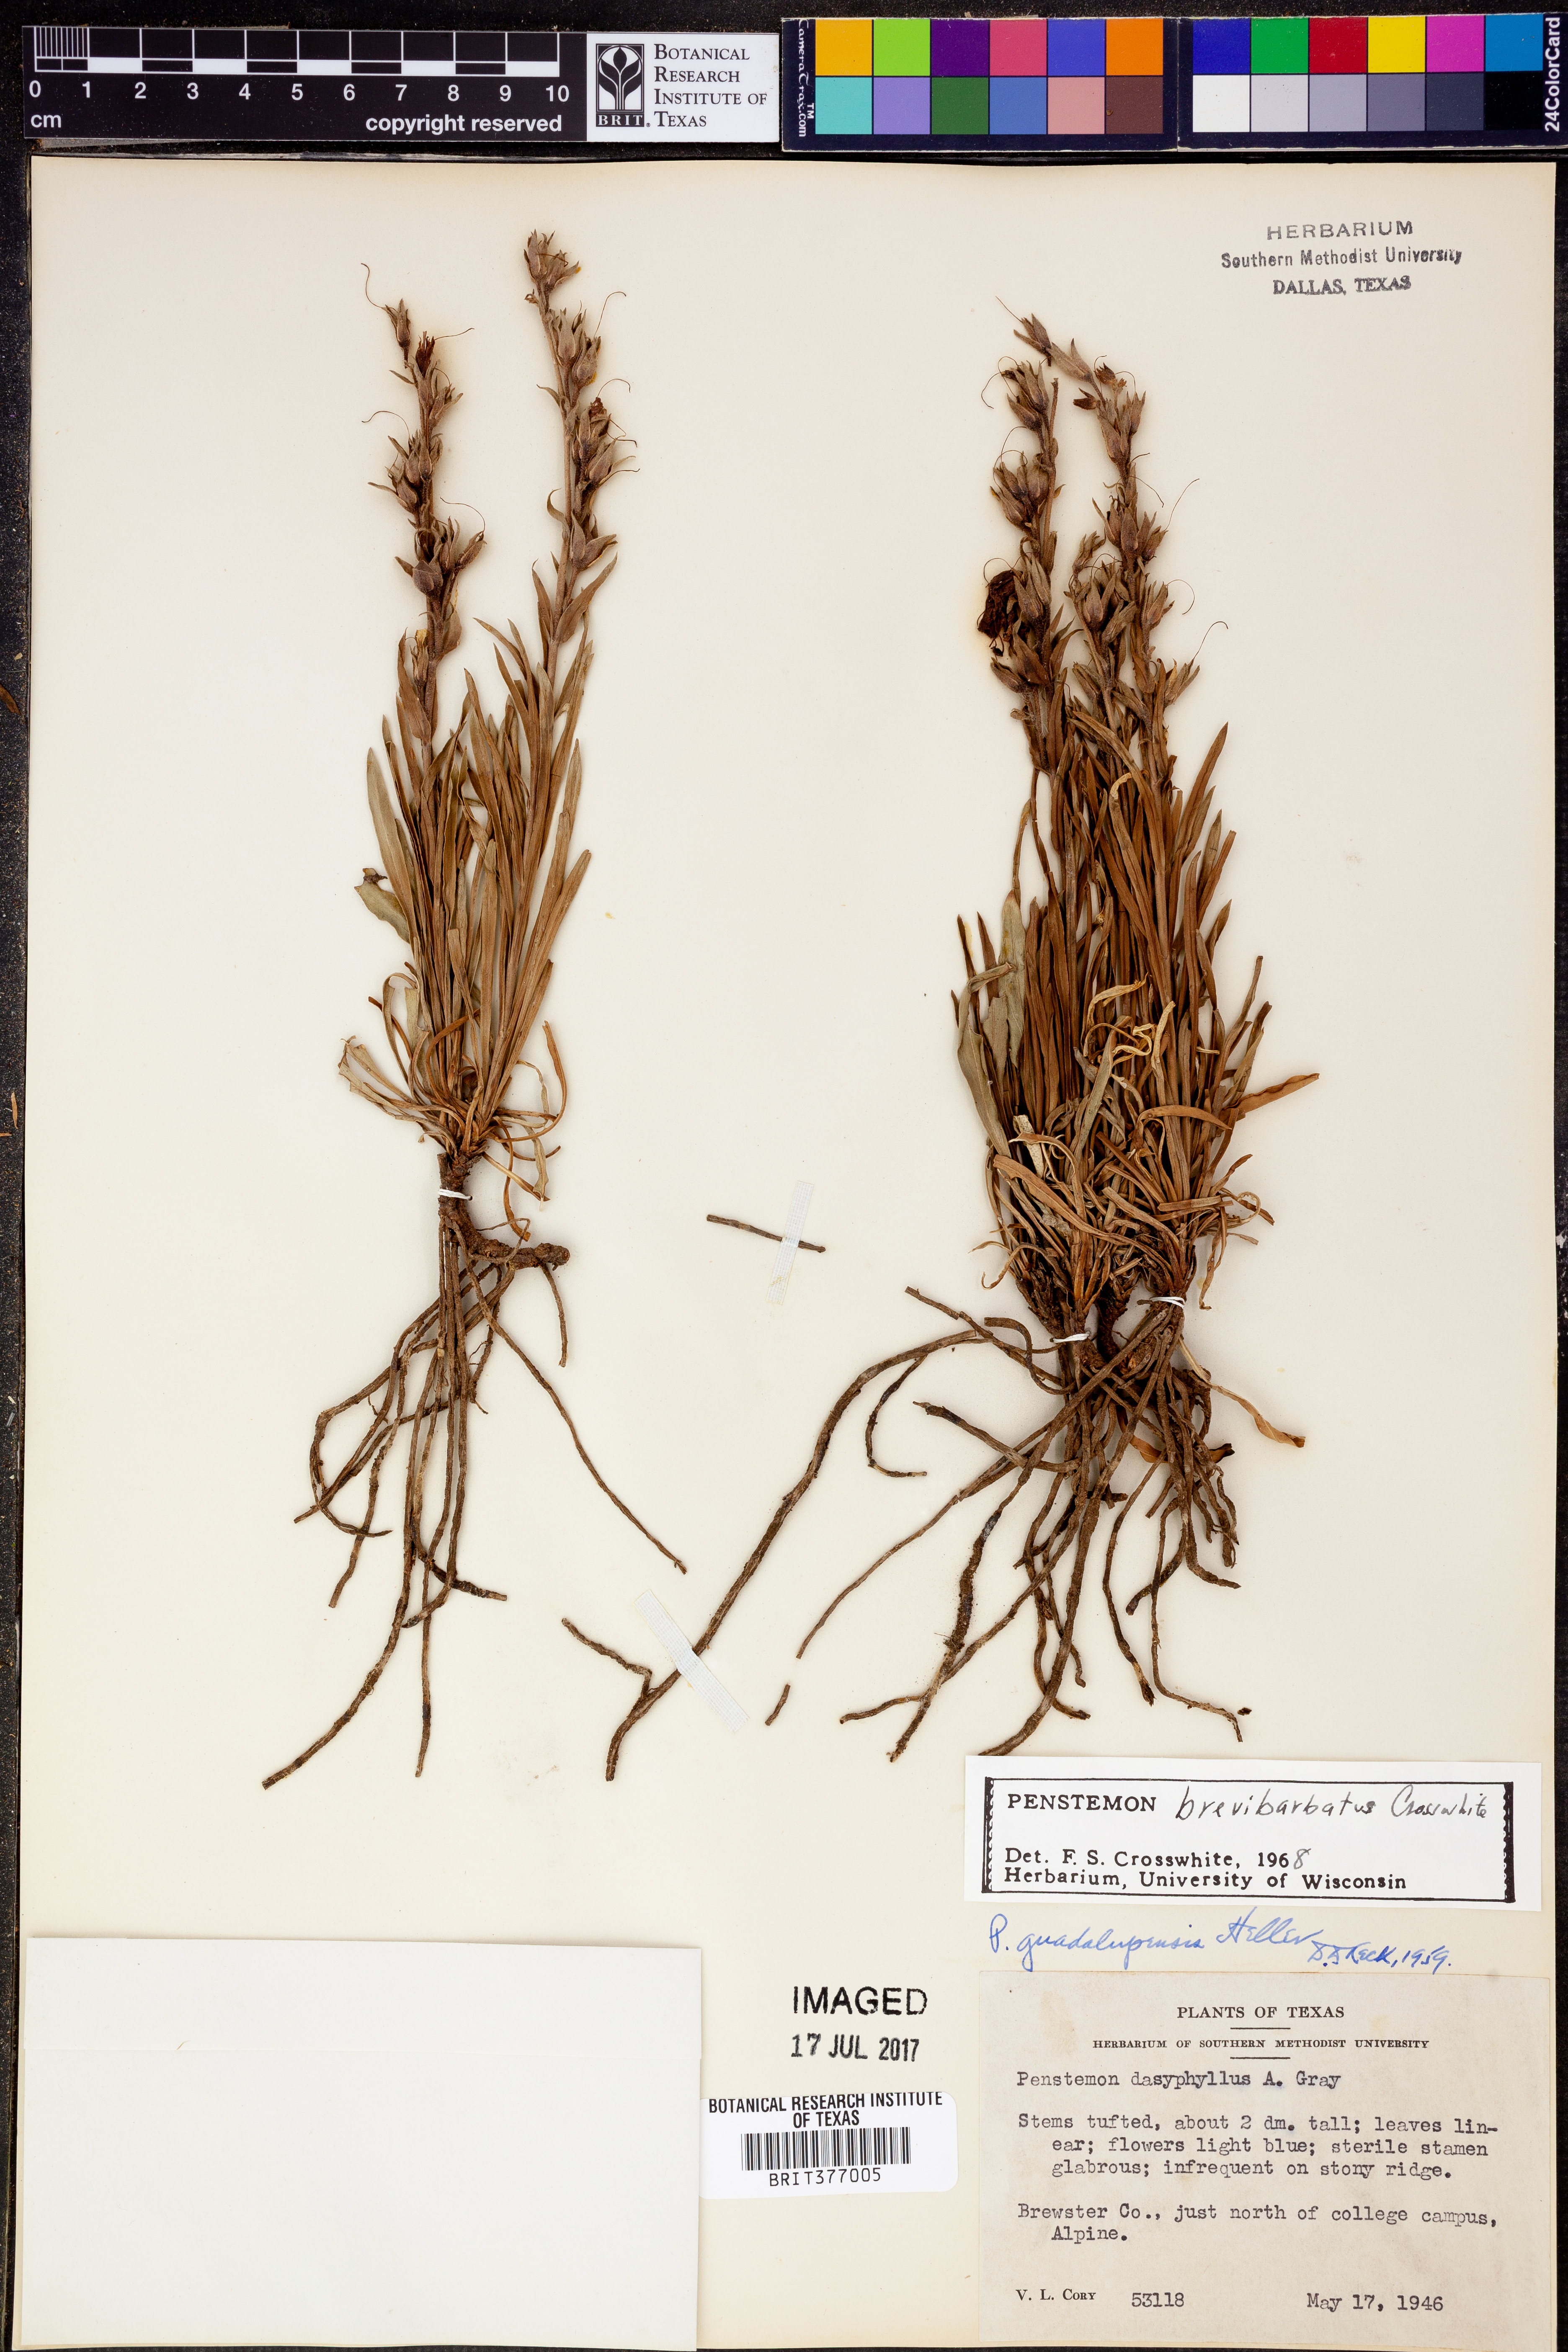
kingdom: Plantae
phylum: Tracheophyta
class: Magnoliopsida
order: Lamiales
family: Plantaginaceae
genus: Penstemon
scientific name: Penstemon brevibarbatus
